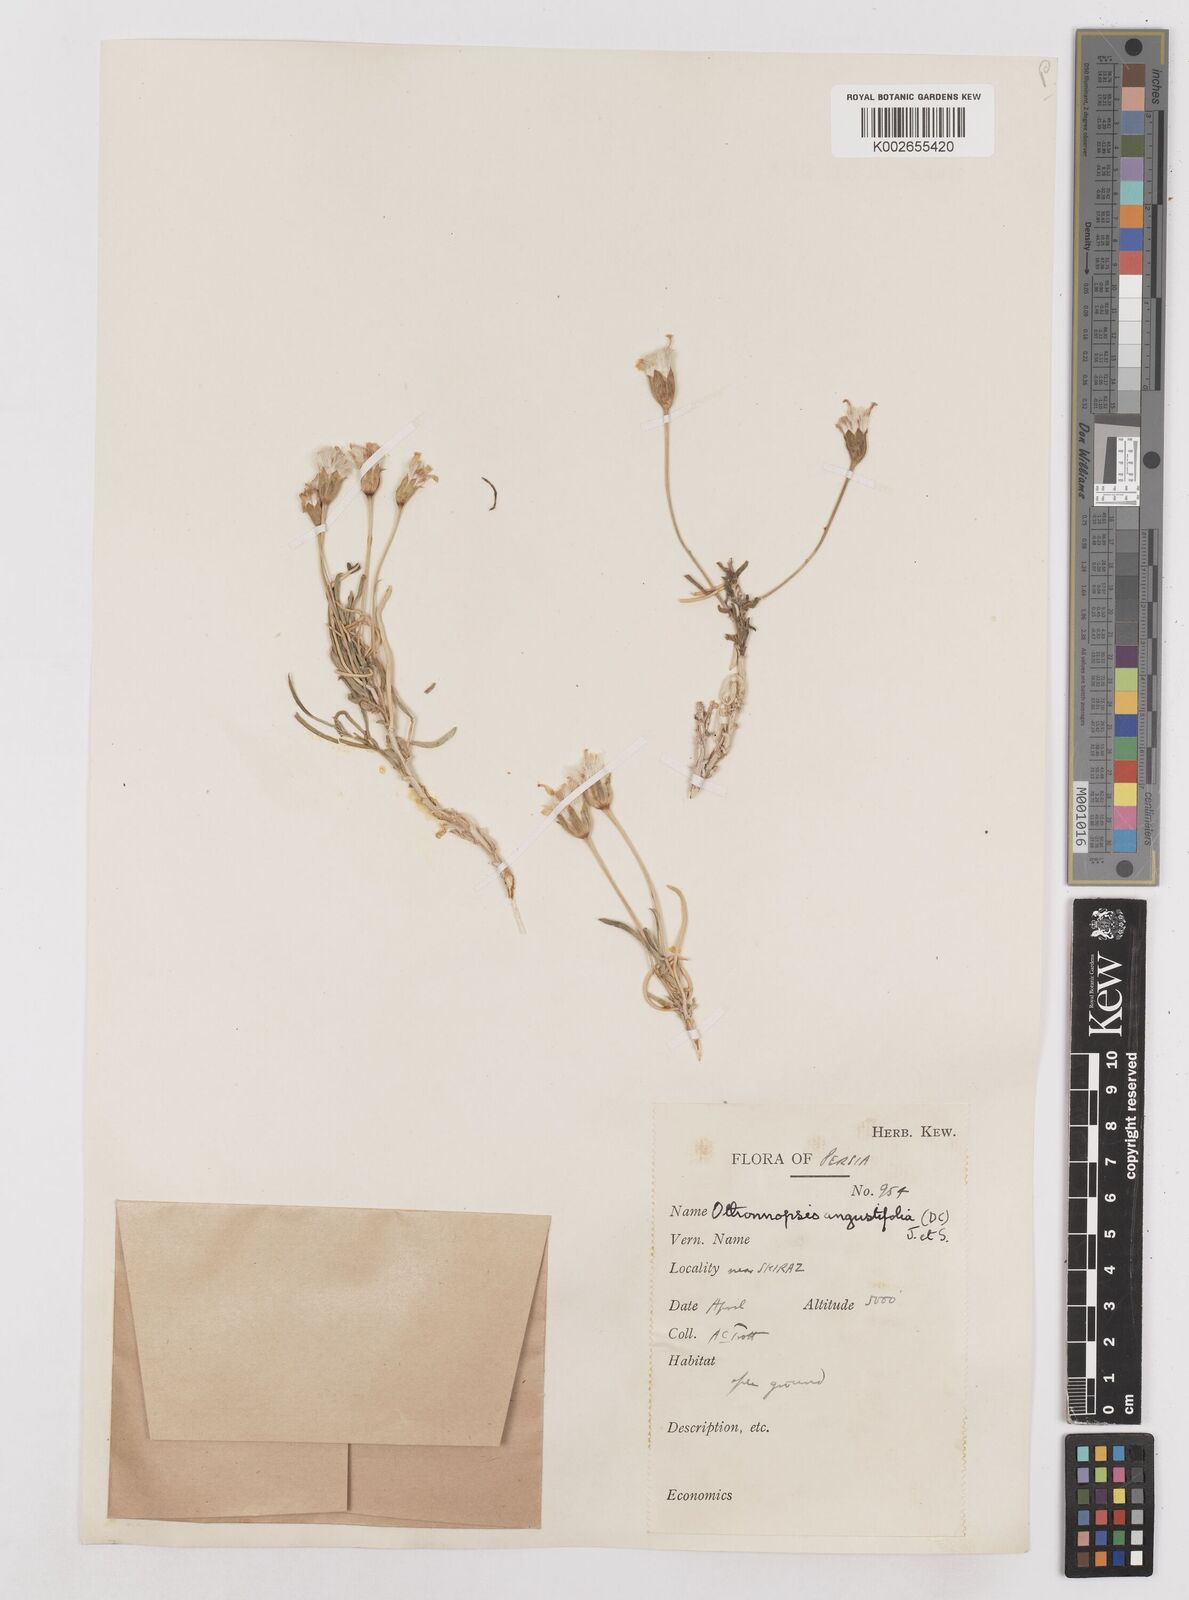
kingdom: Plantae
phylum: Tracheophyta
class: Magnoliopsida
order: Asterales
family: Asteraceae
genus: Hertia
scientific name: Hertia angustifolia
